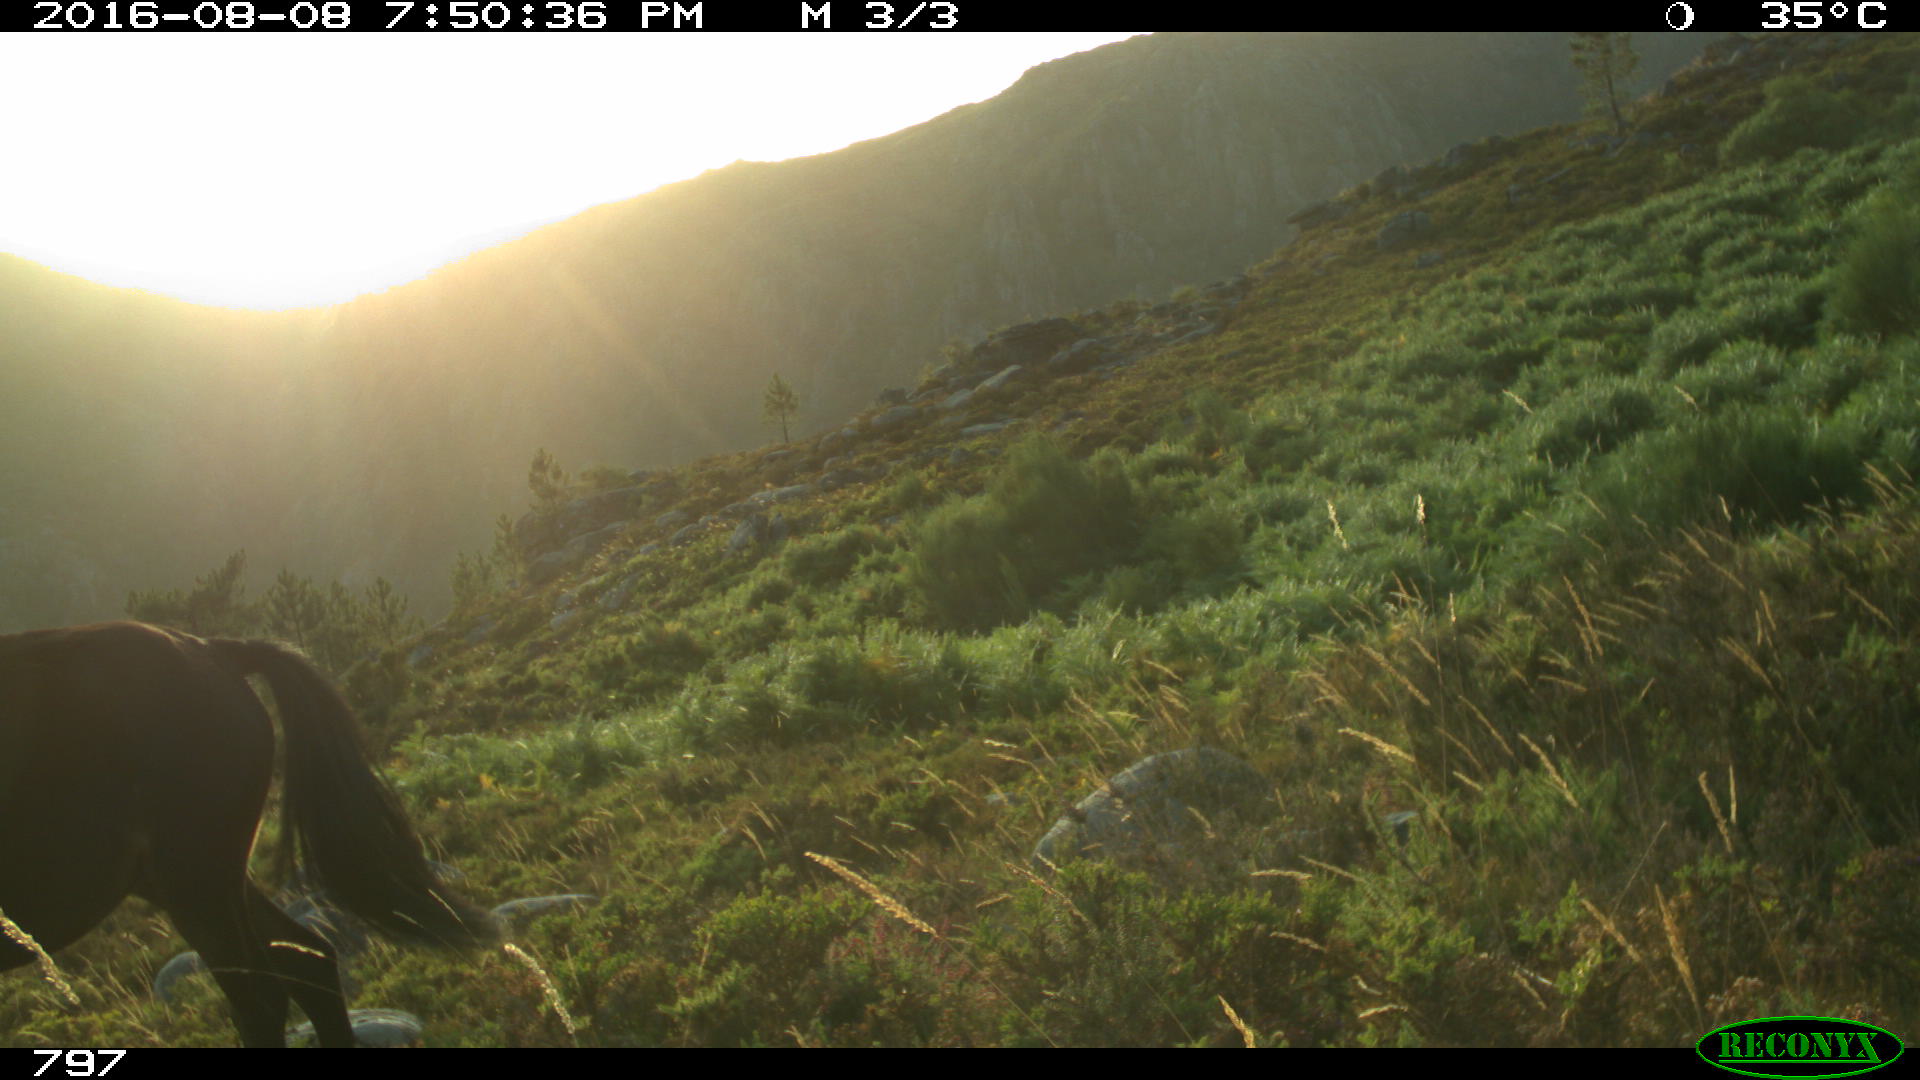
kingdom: Animalia
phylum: Chordata
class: Mammalia
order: Perissodactyla
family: Equidae
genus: Equus
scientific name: Equus caballus
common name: Horse
